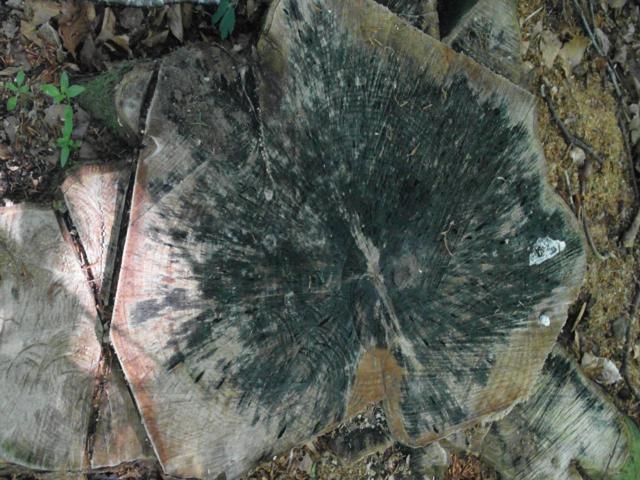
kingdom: Fungi
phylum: Ascomycota
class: Leotiomycetes
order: Helotiales
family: Helotiaceae
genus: Bispora
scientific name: Bispora pallescens
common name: måtte-snitskive
